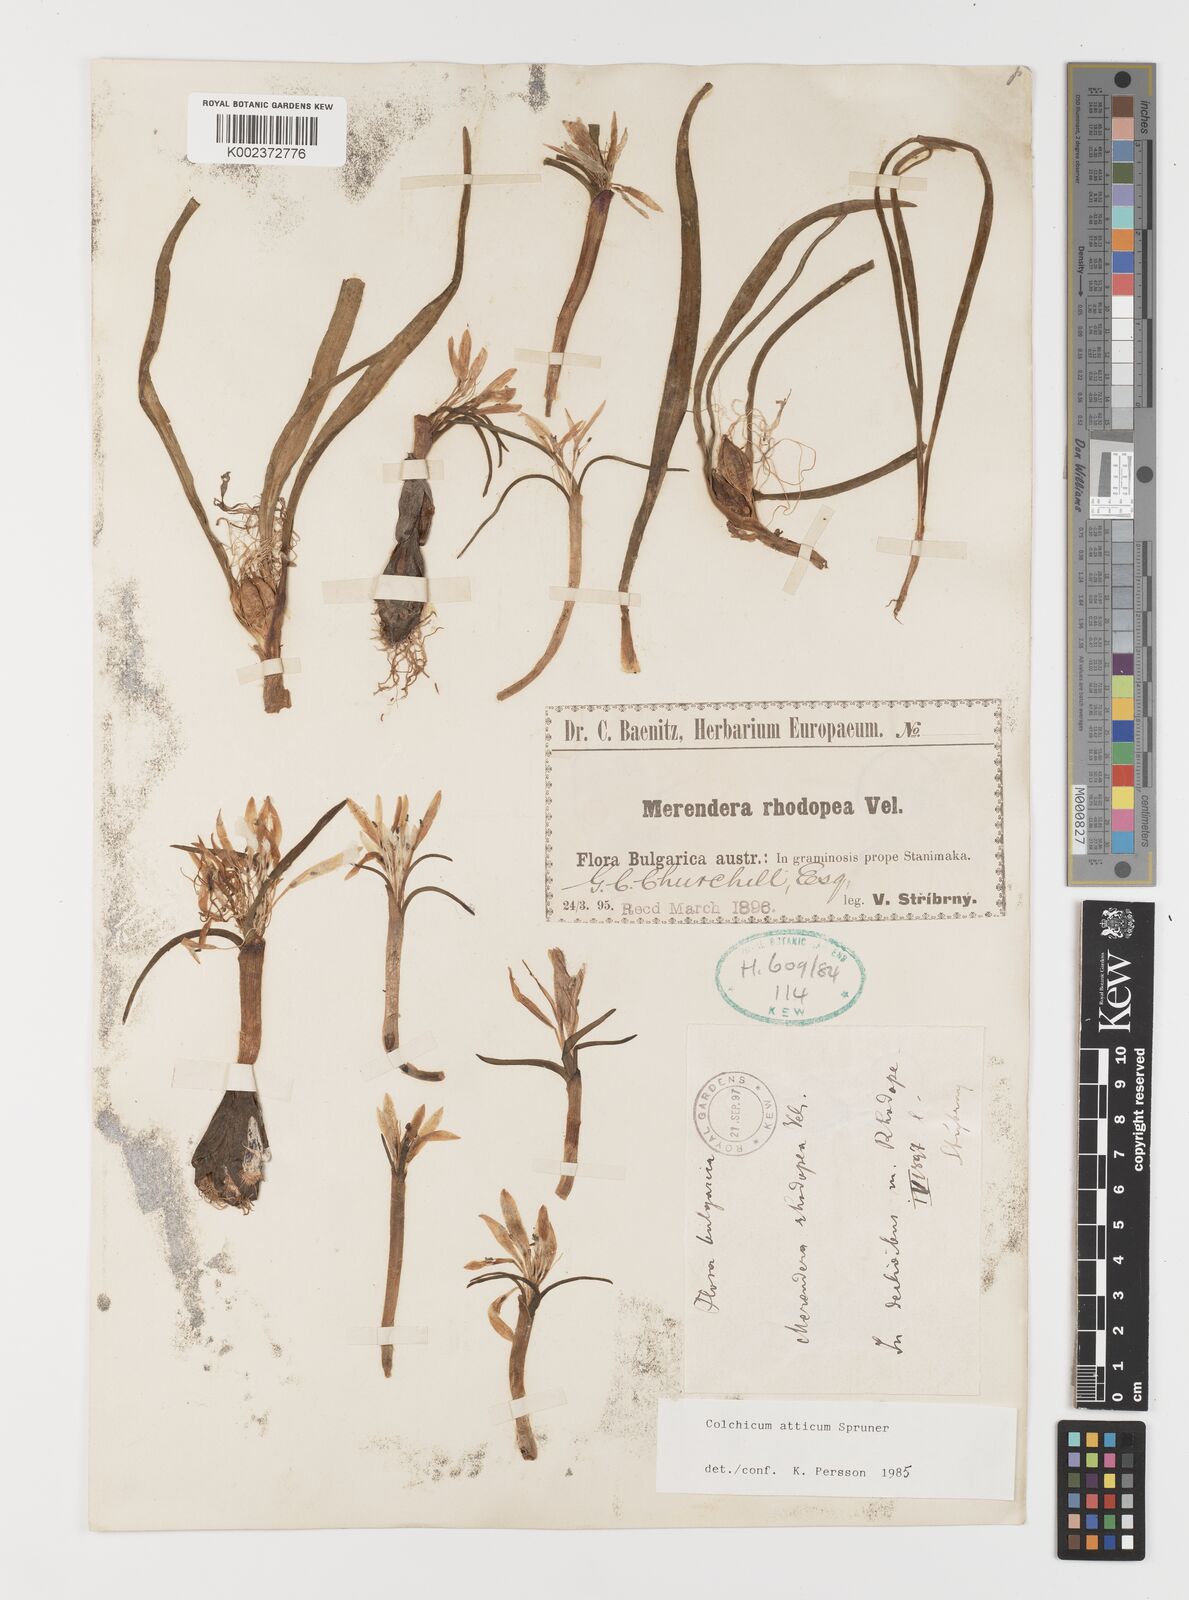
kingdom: Plantae
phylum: Tracheophyta
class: Liliopsida
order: Liliales
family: Colchicaceae
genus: Colchicum
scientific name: Colchicum atticum
